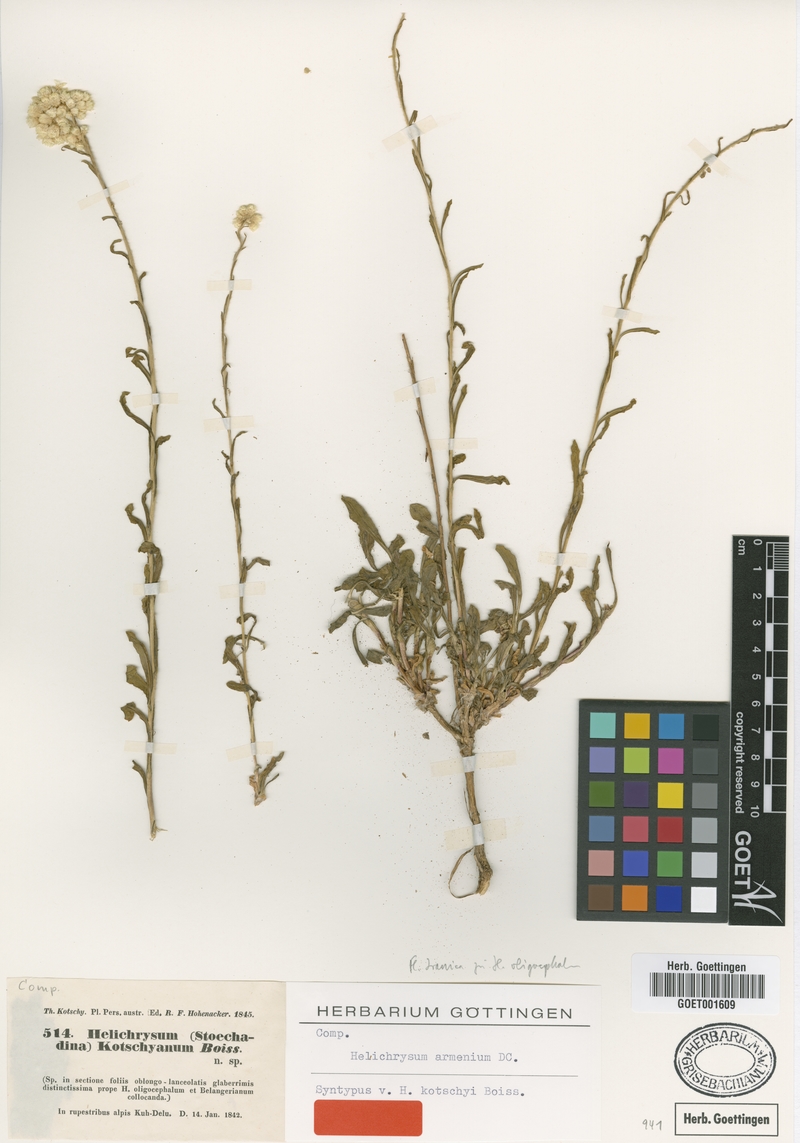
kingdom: Plantae
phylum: Tracheophyta
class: Magnoliopsida
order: Asterales
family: Asteraceae
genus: Helichrysum
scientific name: Helichrysum armenium
